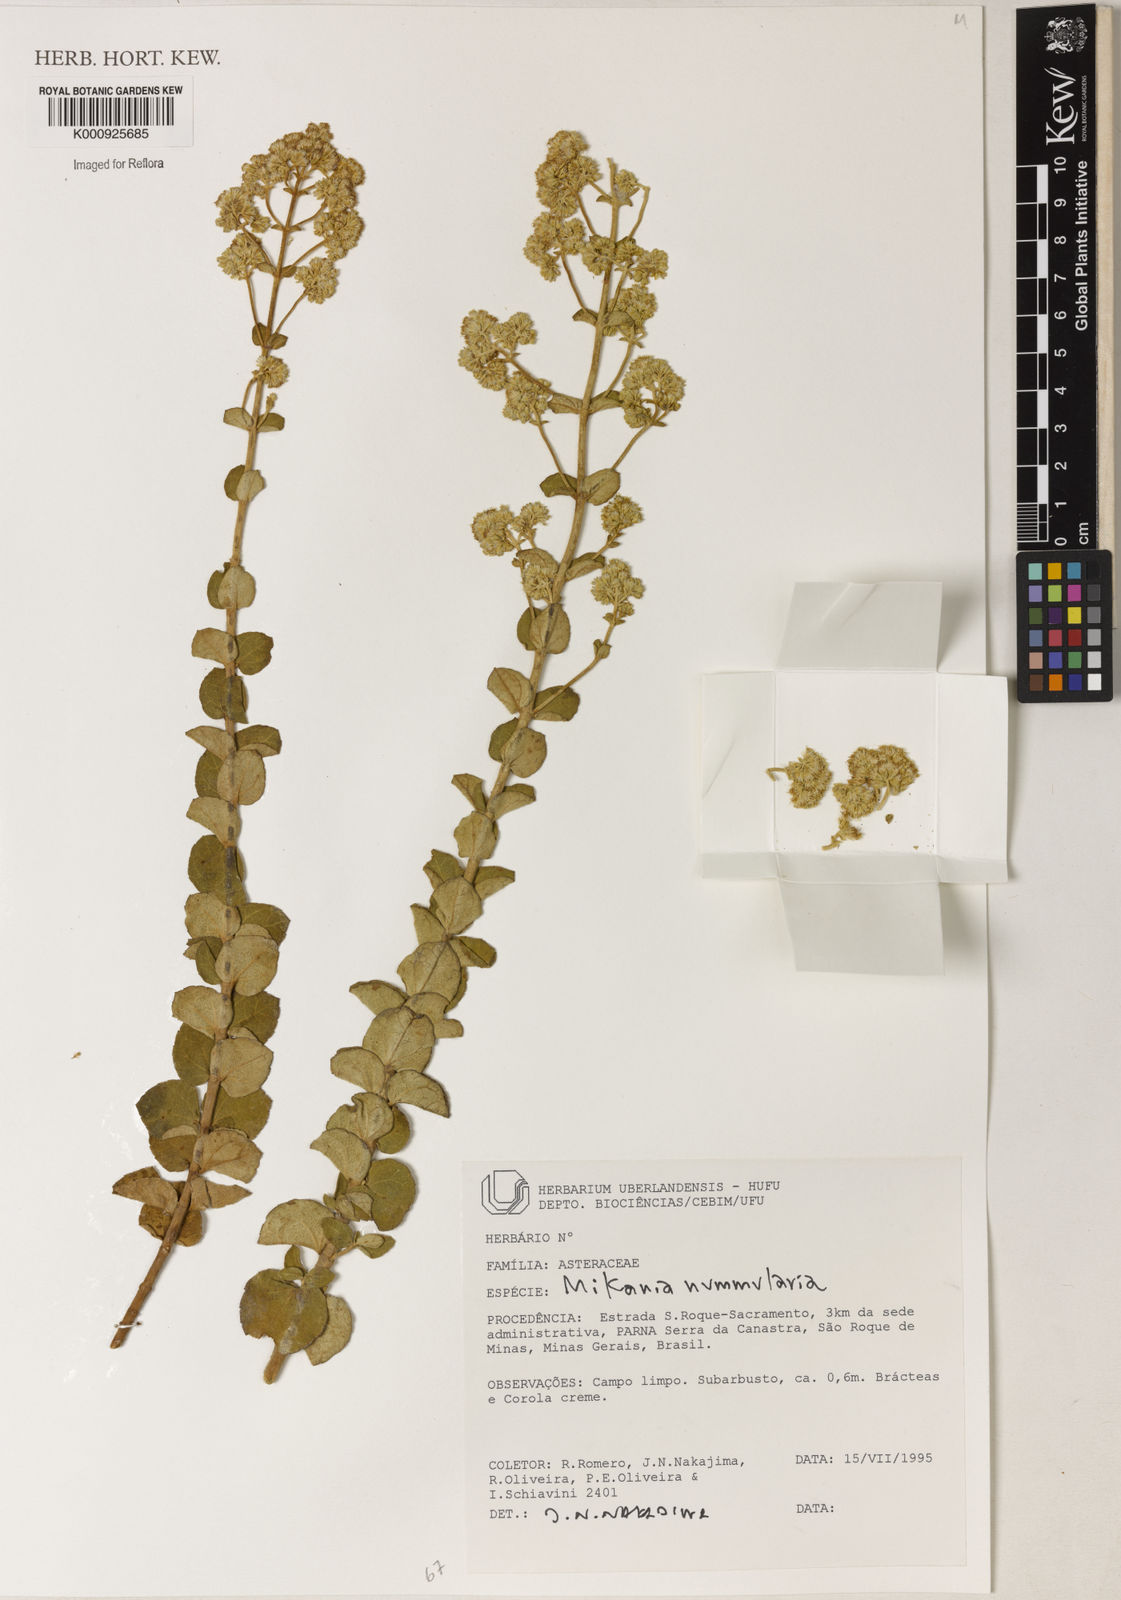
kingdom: Plantae
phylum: Tracheophyta
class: Magnoliopsida
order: Asterales
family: Asteraceae
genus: Mikania
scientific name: Mikania nummularia
